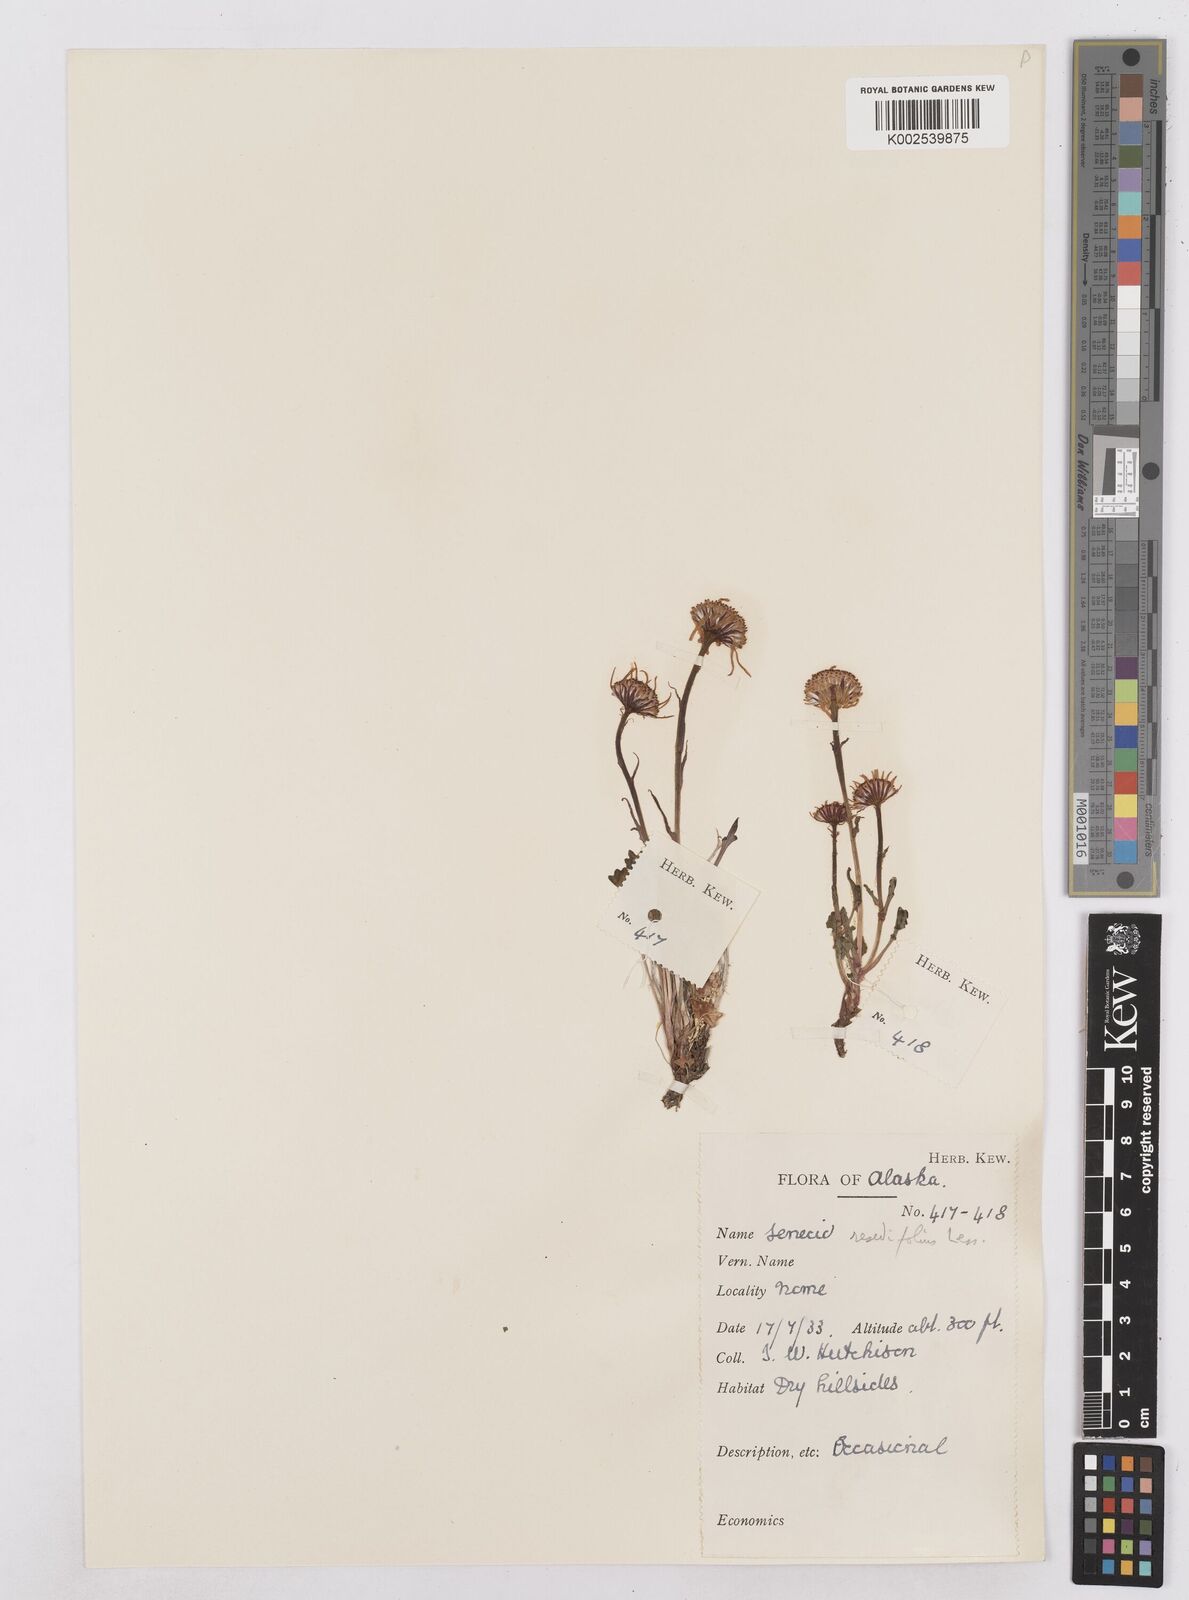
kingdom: Plantae
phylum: Tracheophyta
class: Magnoliopsida
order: Asterales
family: Asteraceae
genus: Packera
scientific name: Packera cymbalaria
